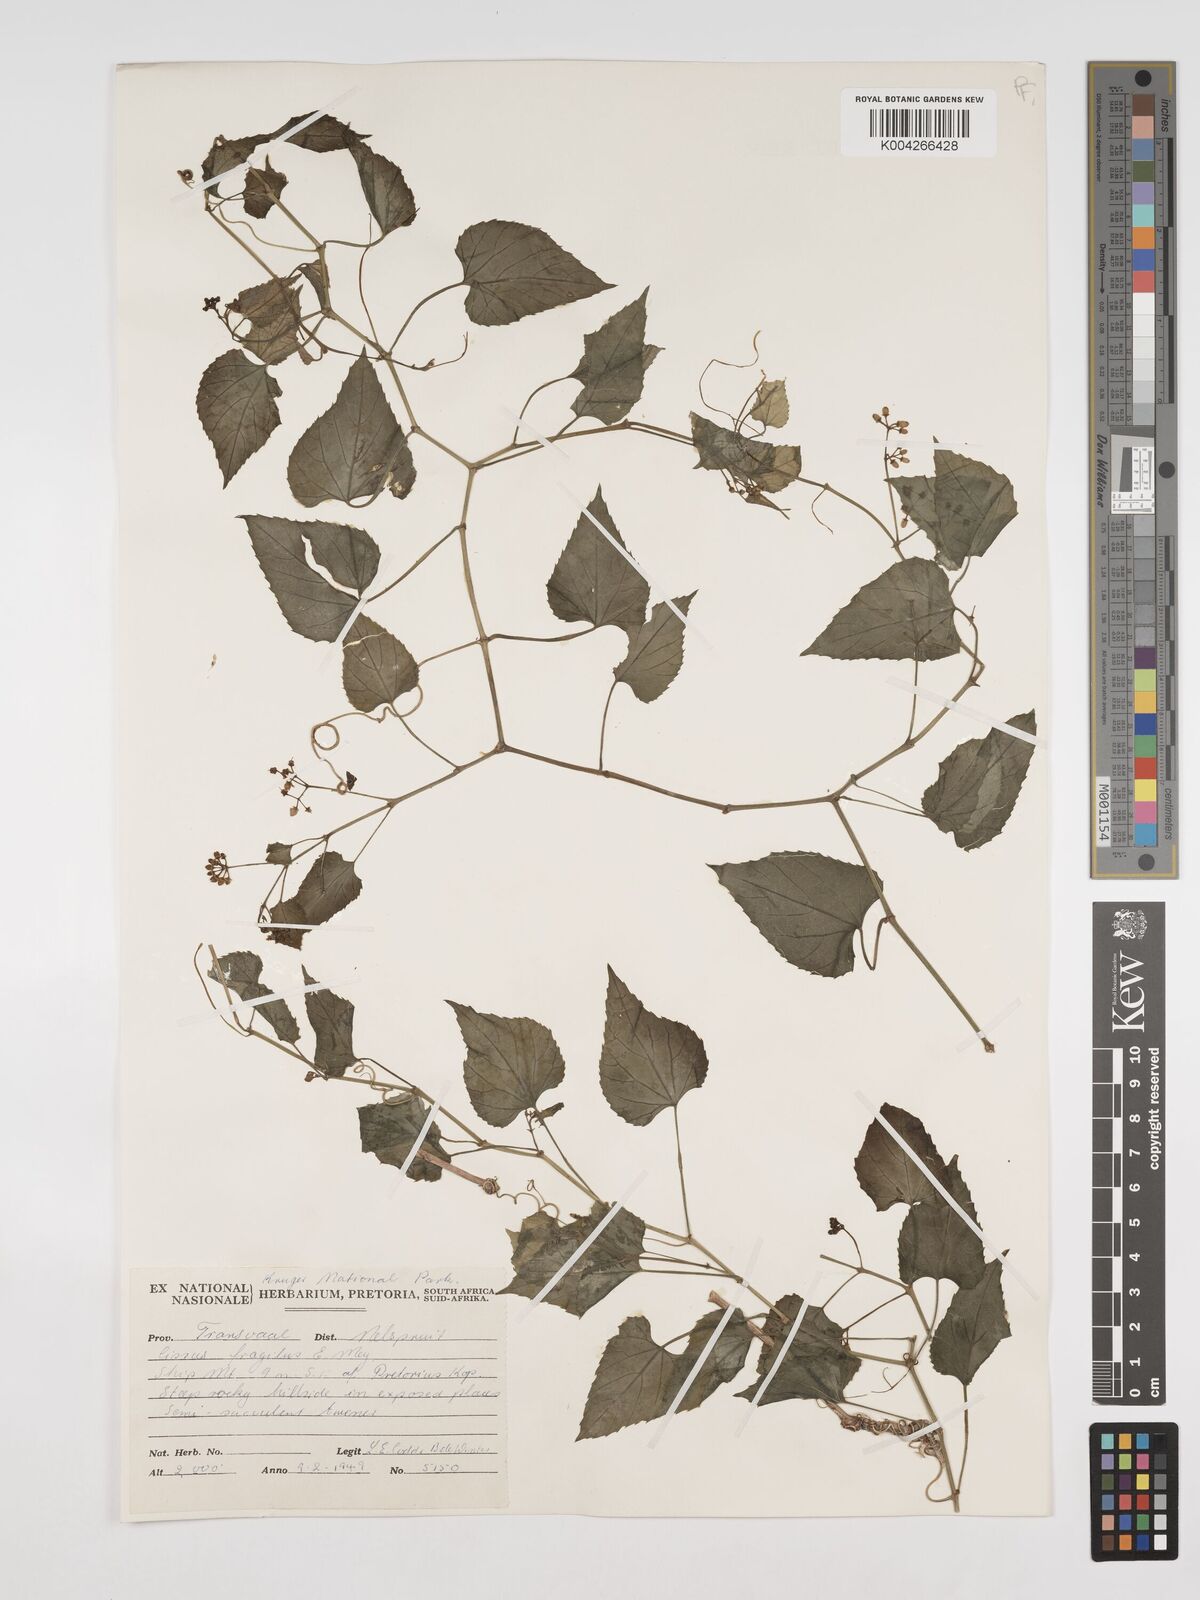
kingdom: Plantae
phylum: Tracheophyta
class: Magnoliopsida
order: Vitales
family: Vitaceae
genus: Cissus
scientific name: Cissus fragilis
